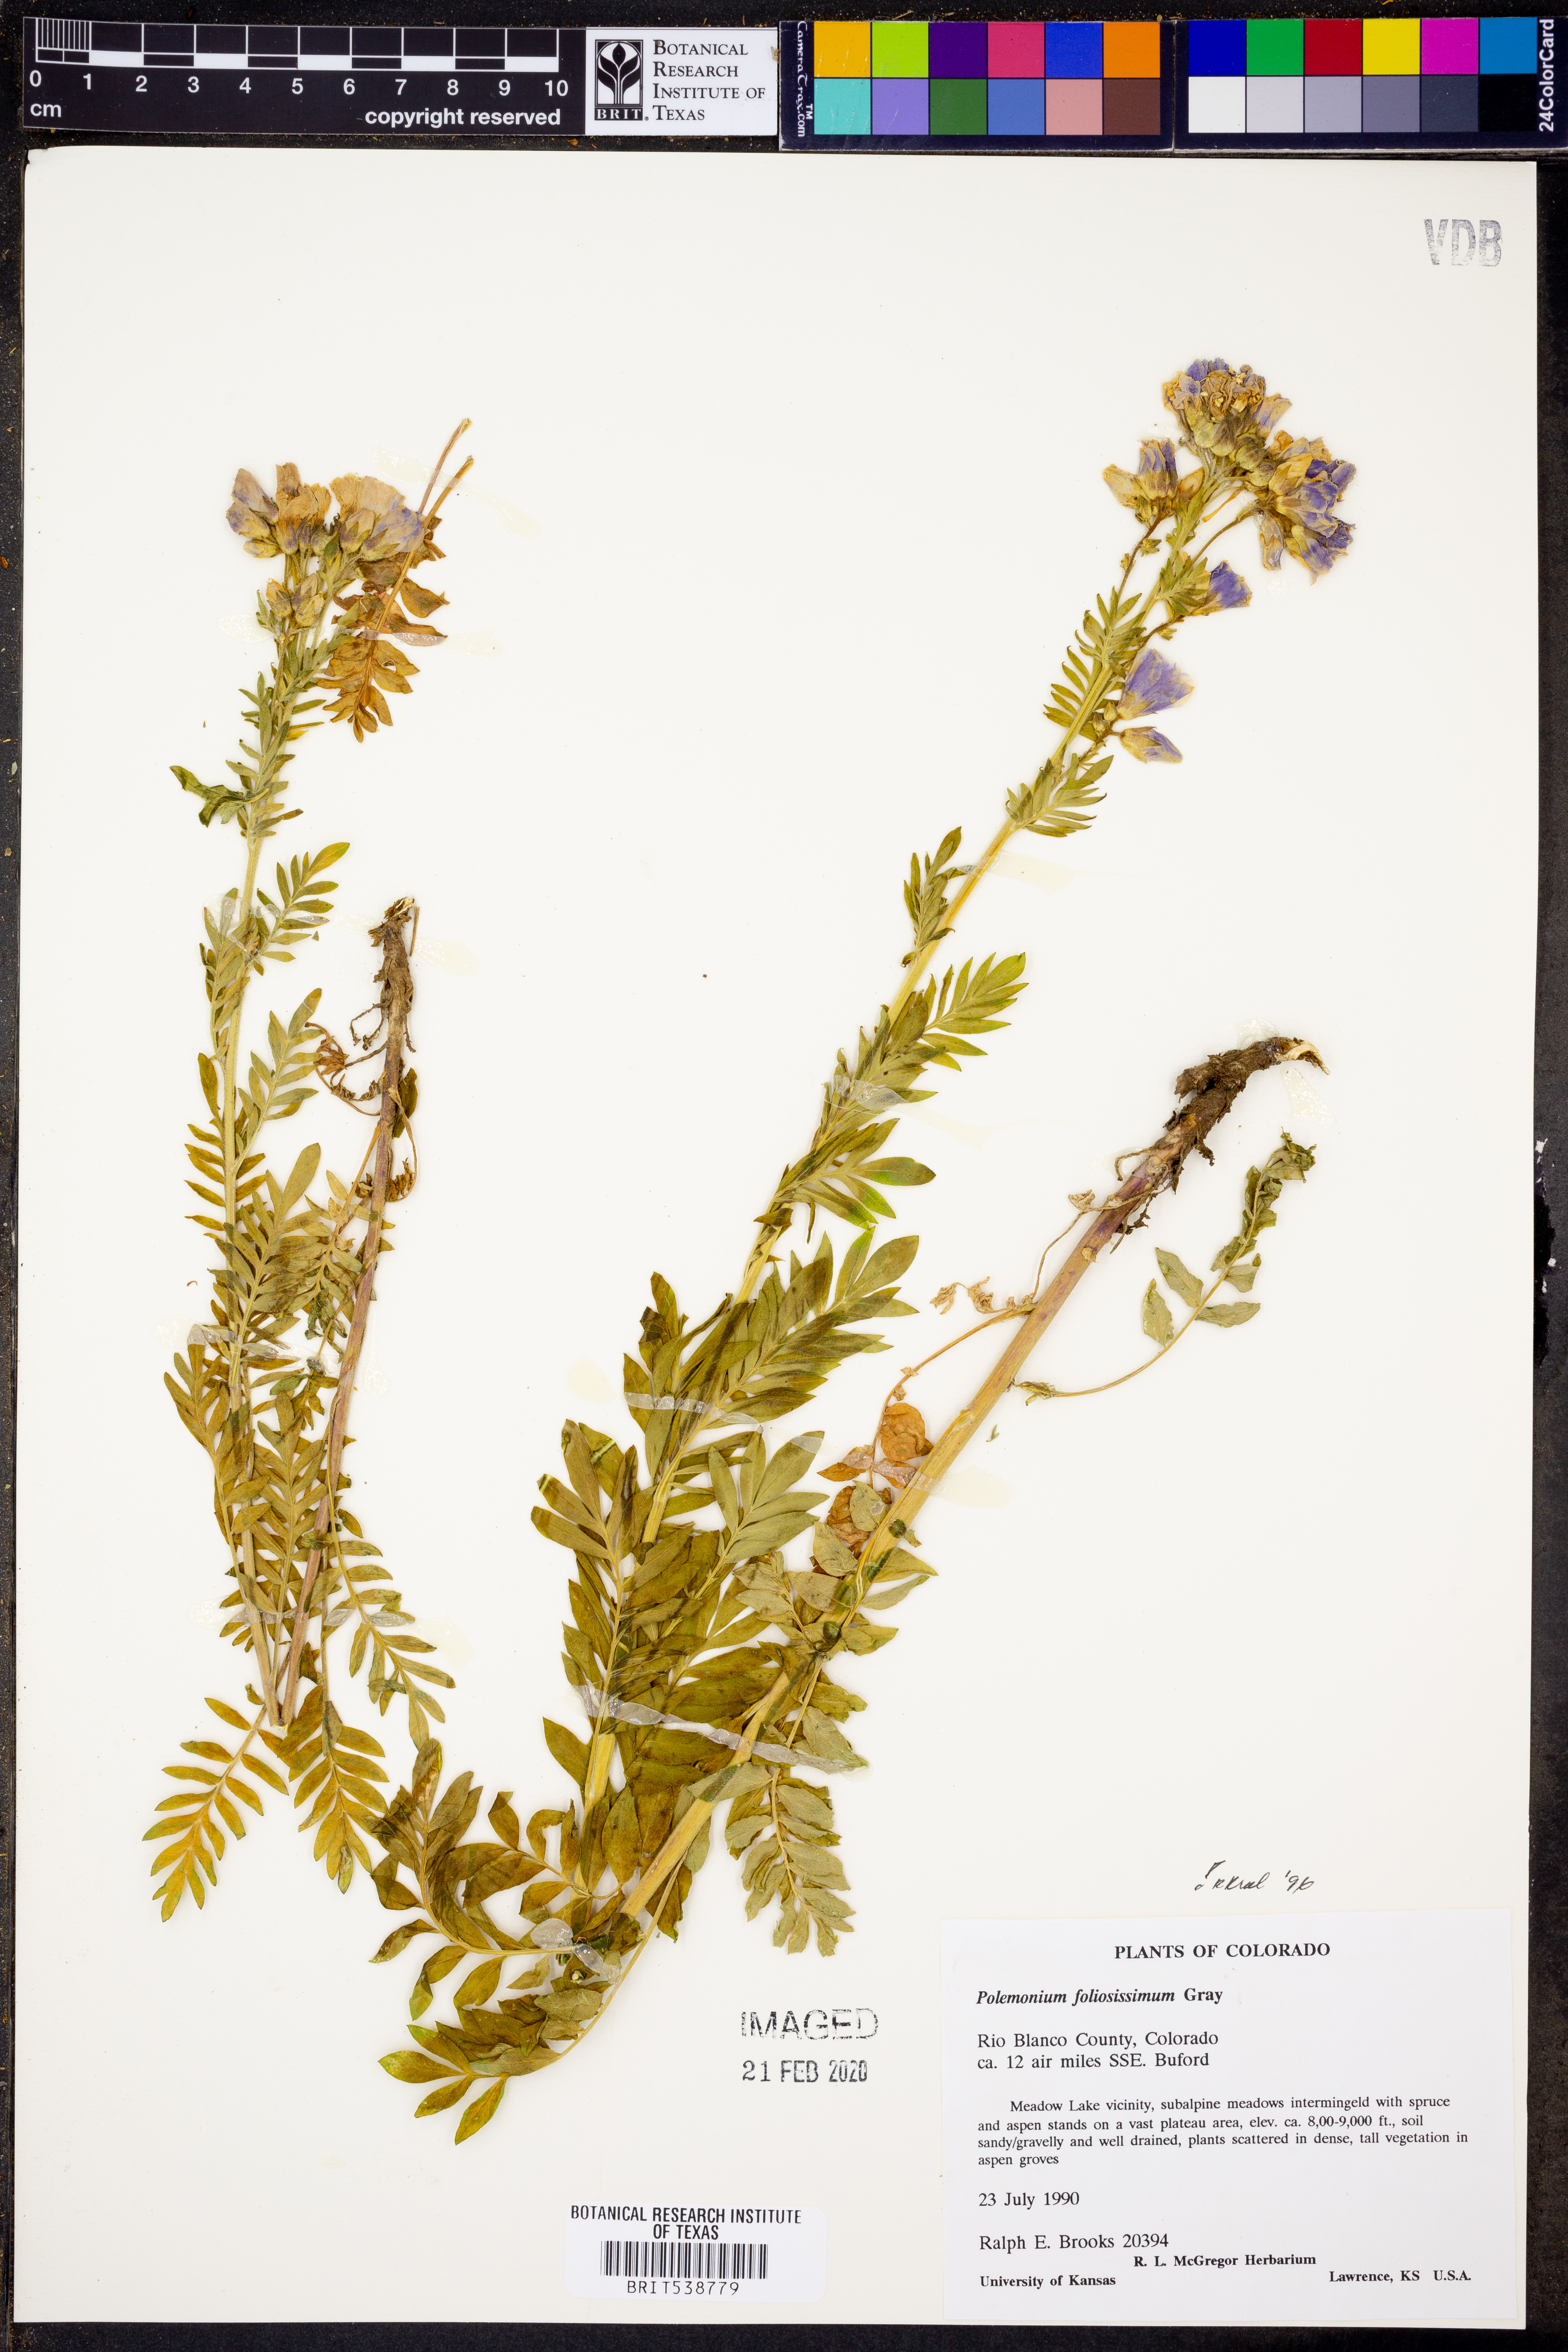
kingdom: Plantae
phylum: Tracheophyta
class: Magnoliopsida
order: Ericales
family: Polemoniaceae
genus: Polemonium
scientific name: Polemonium foliosissimum
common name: Leafy jacob's-ladder
